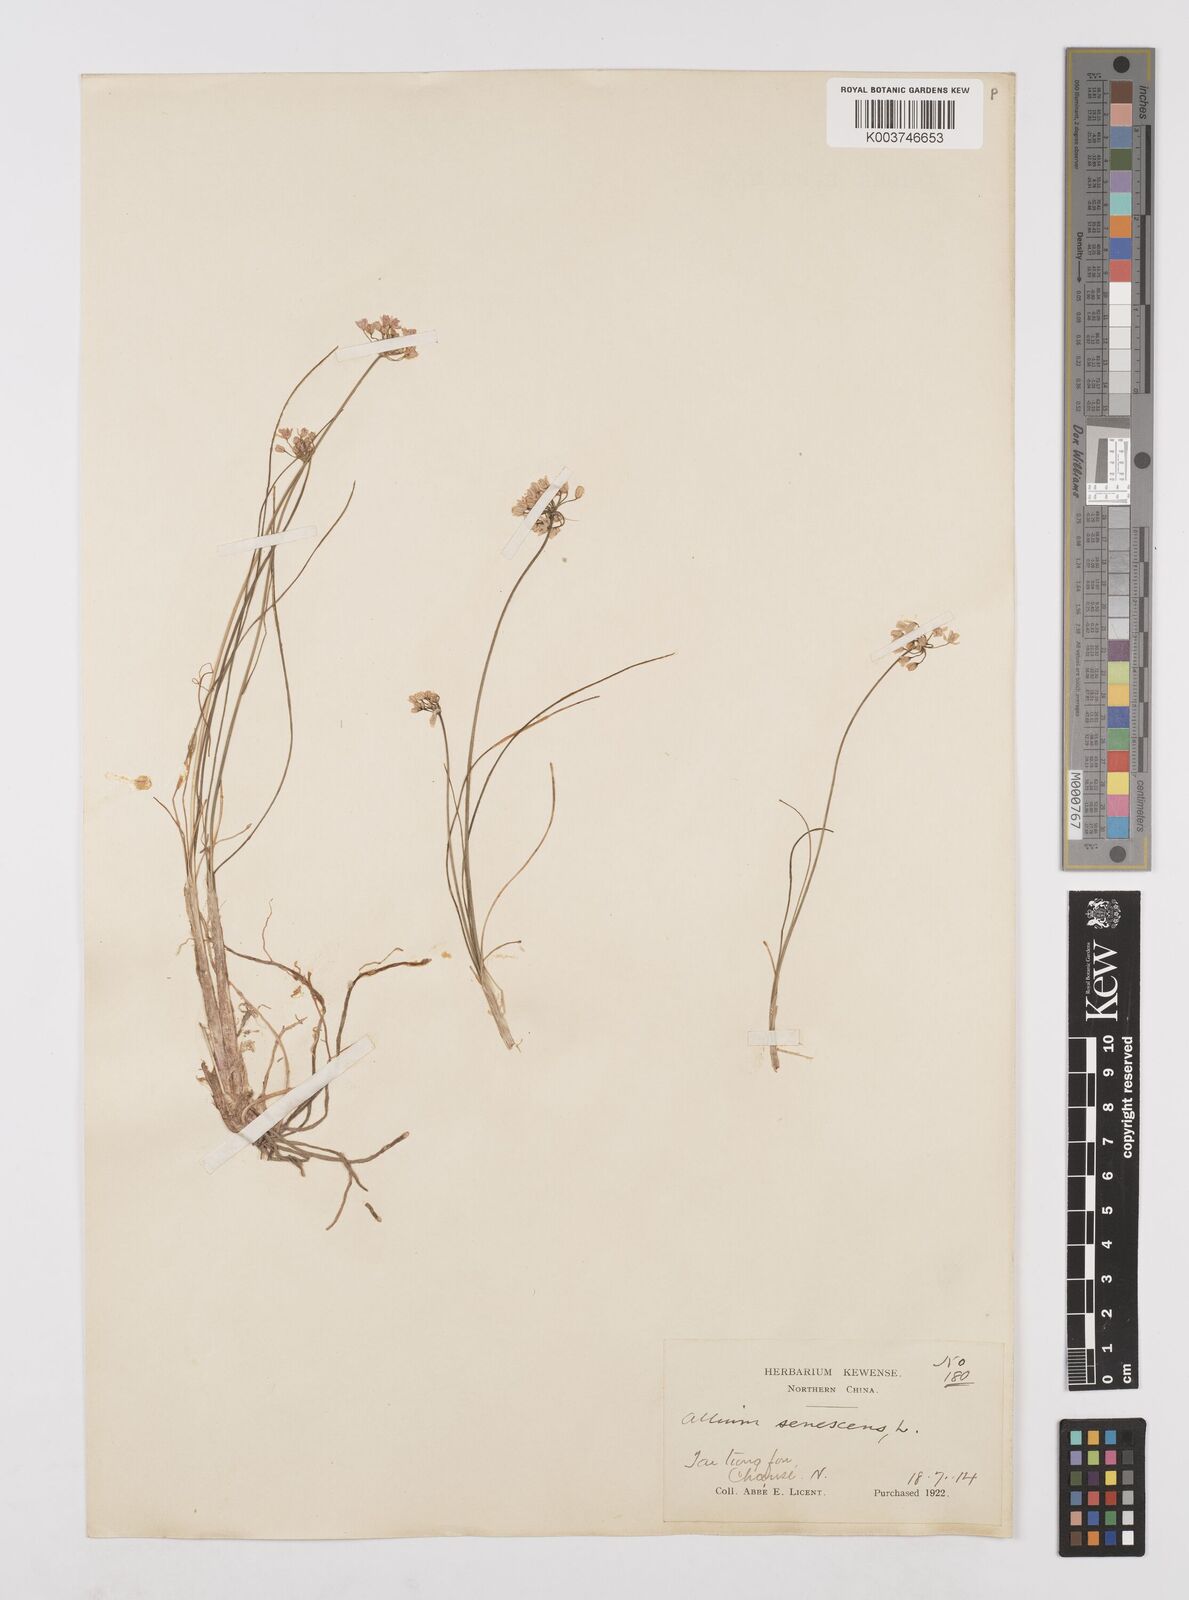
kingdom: Plantae
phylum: Tracheophyta
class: Liliopsida
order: Asparagales
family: Amaryllidaceae
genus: Allium
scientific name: Allium anisopodium
